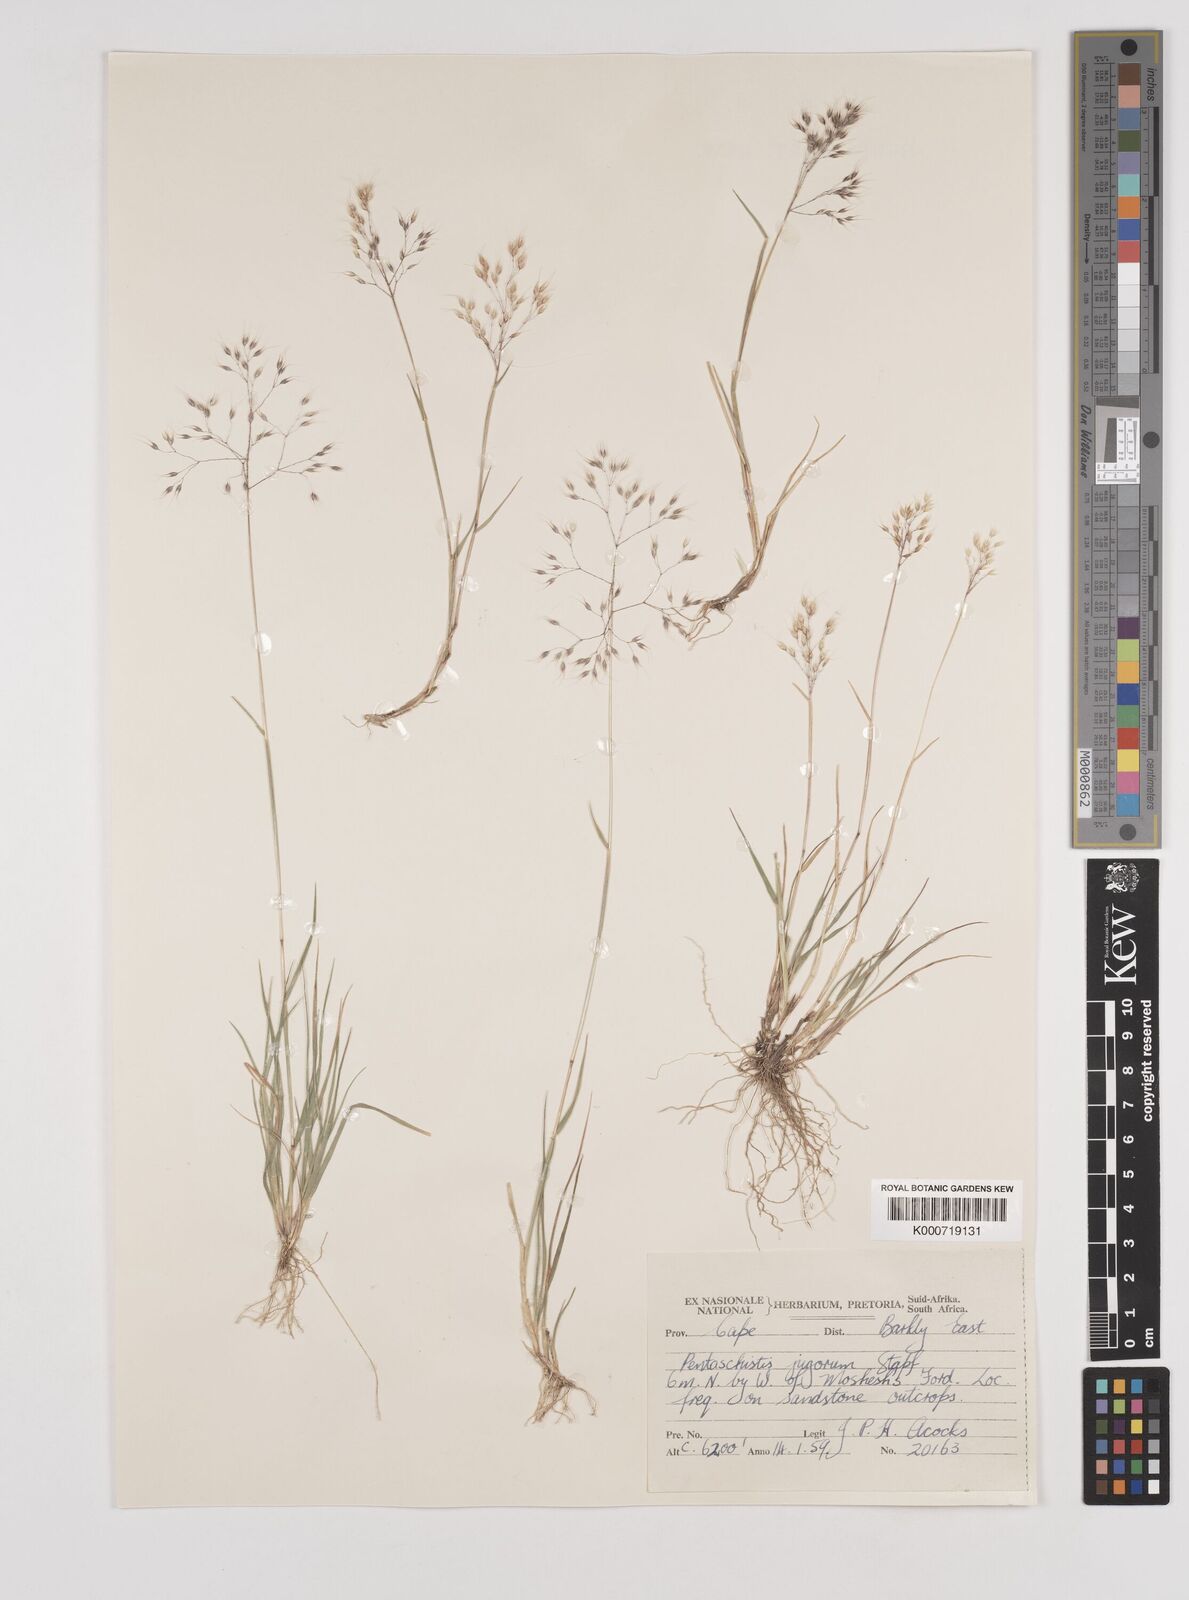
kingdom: Plantae
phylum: Tracheophyta
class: Liliopsida
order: Poales
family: Poaceae
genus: Pentameris
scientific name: Pentameris airoides
